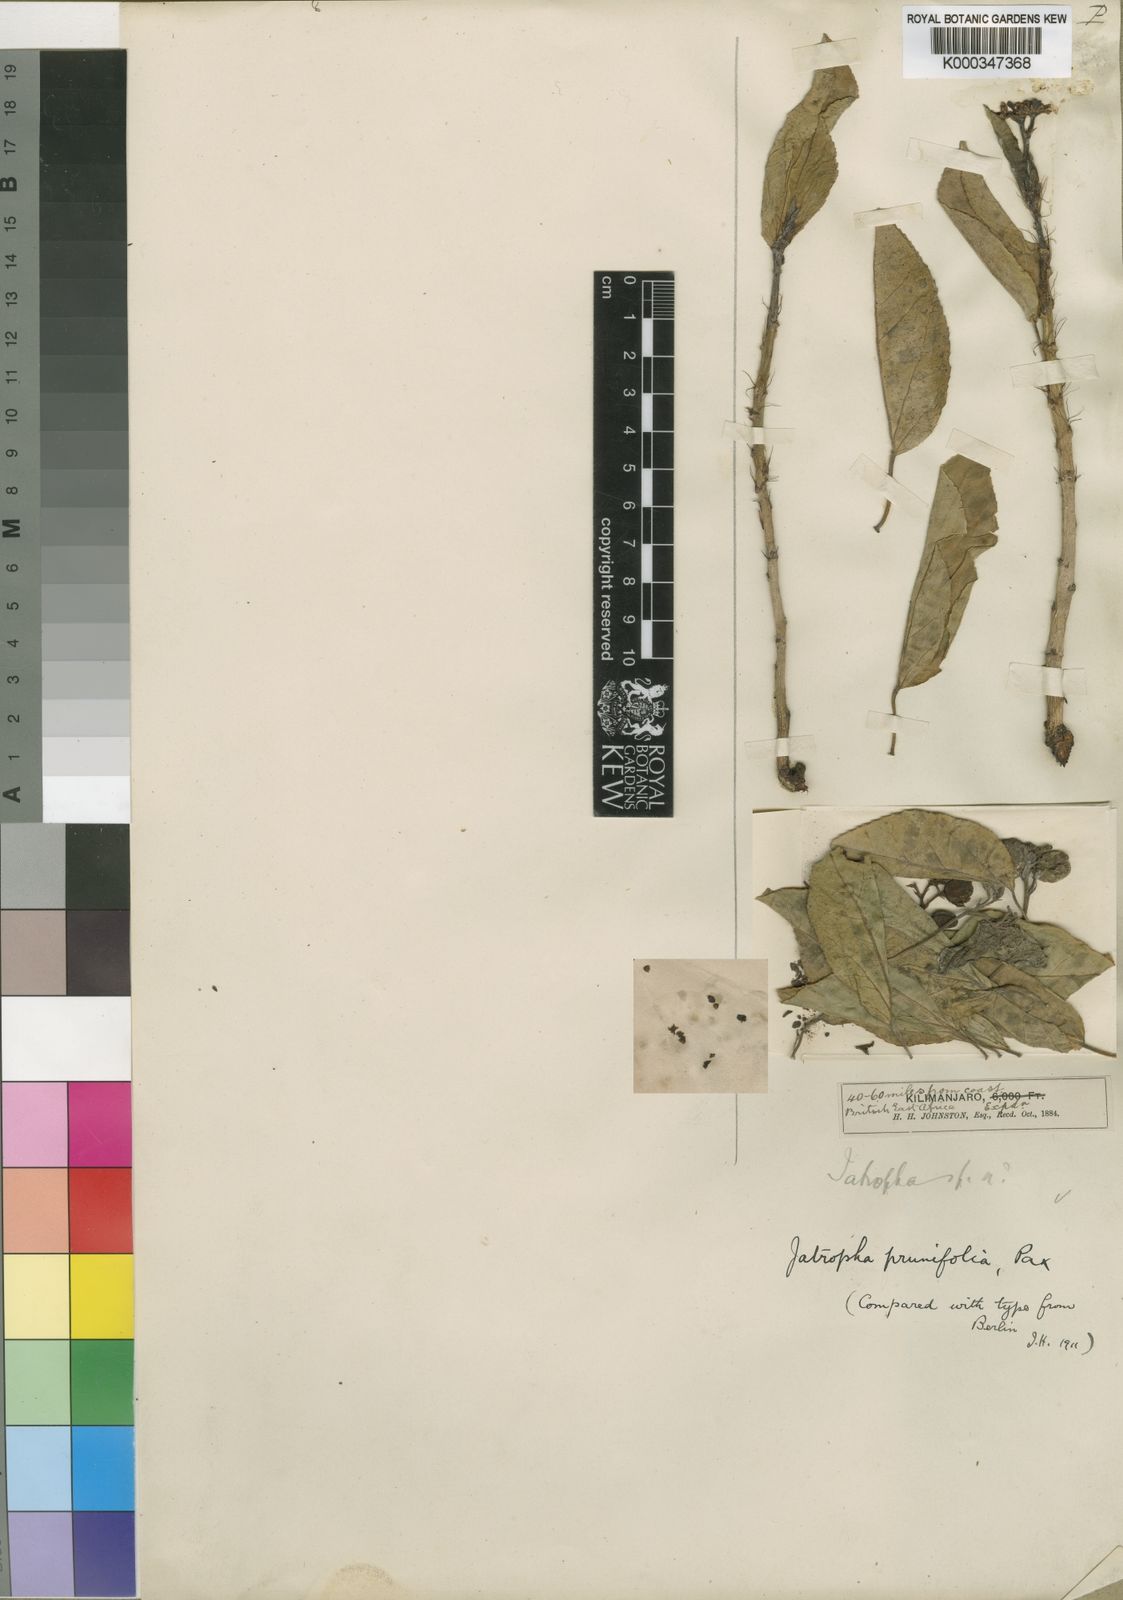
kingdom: Plantae
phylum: Tracheophyta
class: Magnoliopsida
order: Malpighiales
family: Euphorbiaceae
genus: Jatropha
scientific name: Jatropha prunifolia
